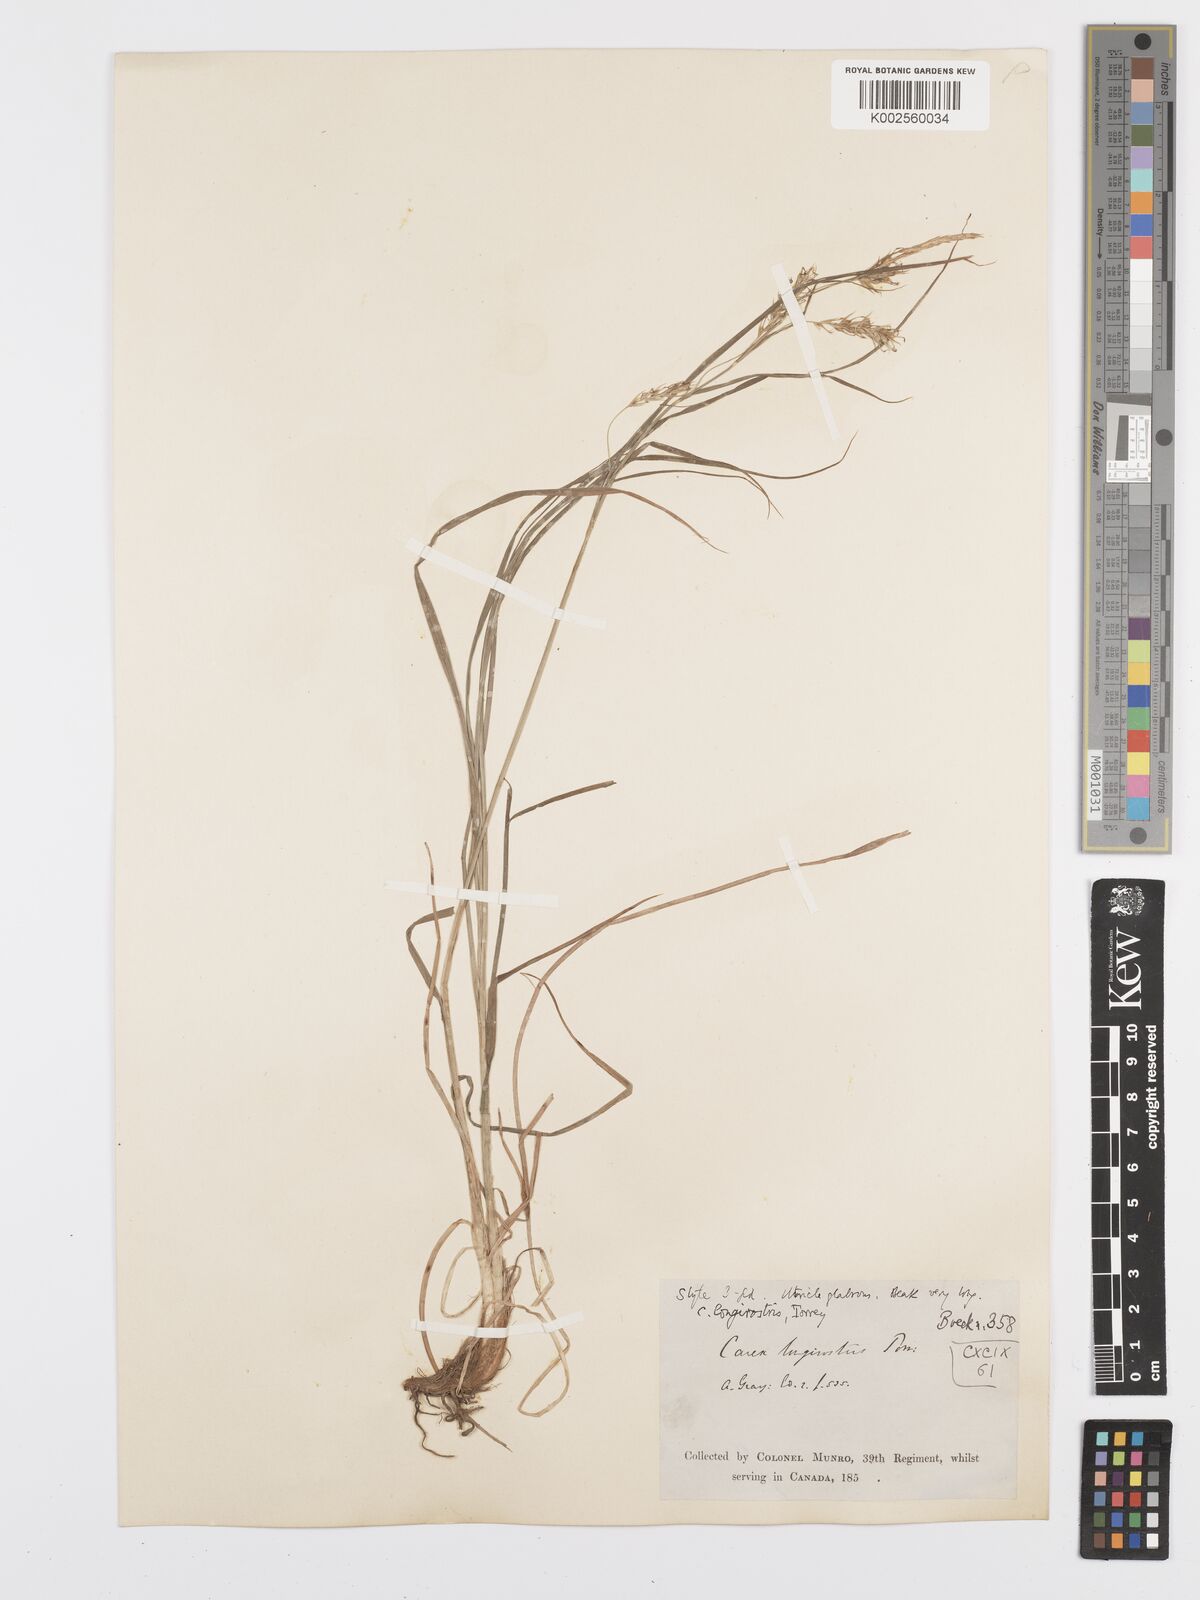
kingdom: Plantae
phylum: Tracheophyta
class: Liliopsida
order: Poales
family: Cyperaceae
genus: Carex
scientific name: Carex sprengelii
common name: Long-beaked sedge
